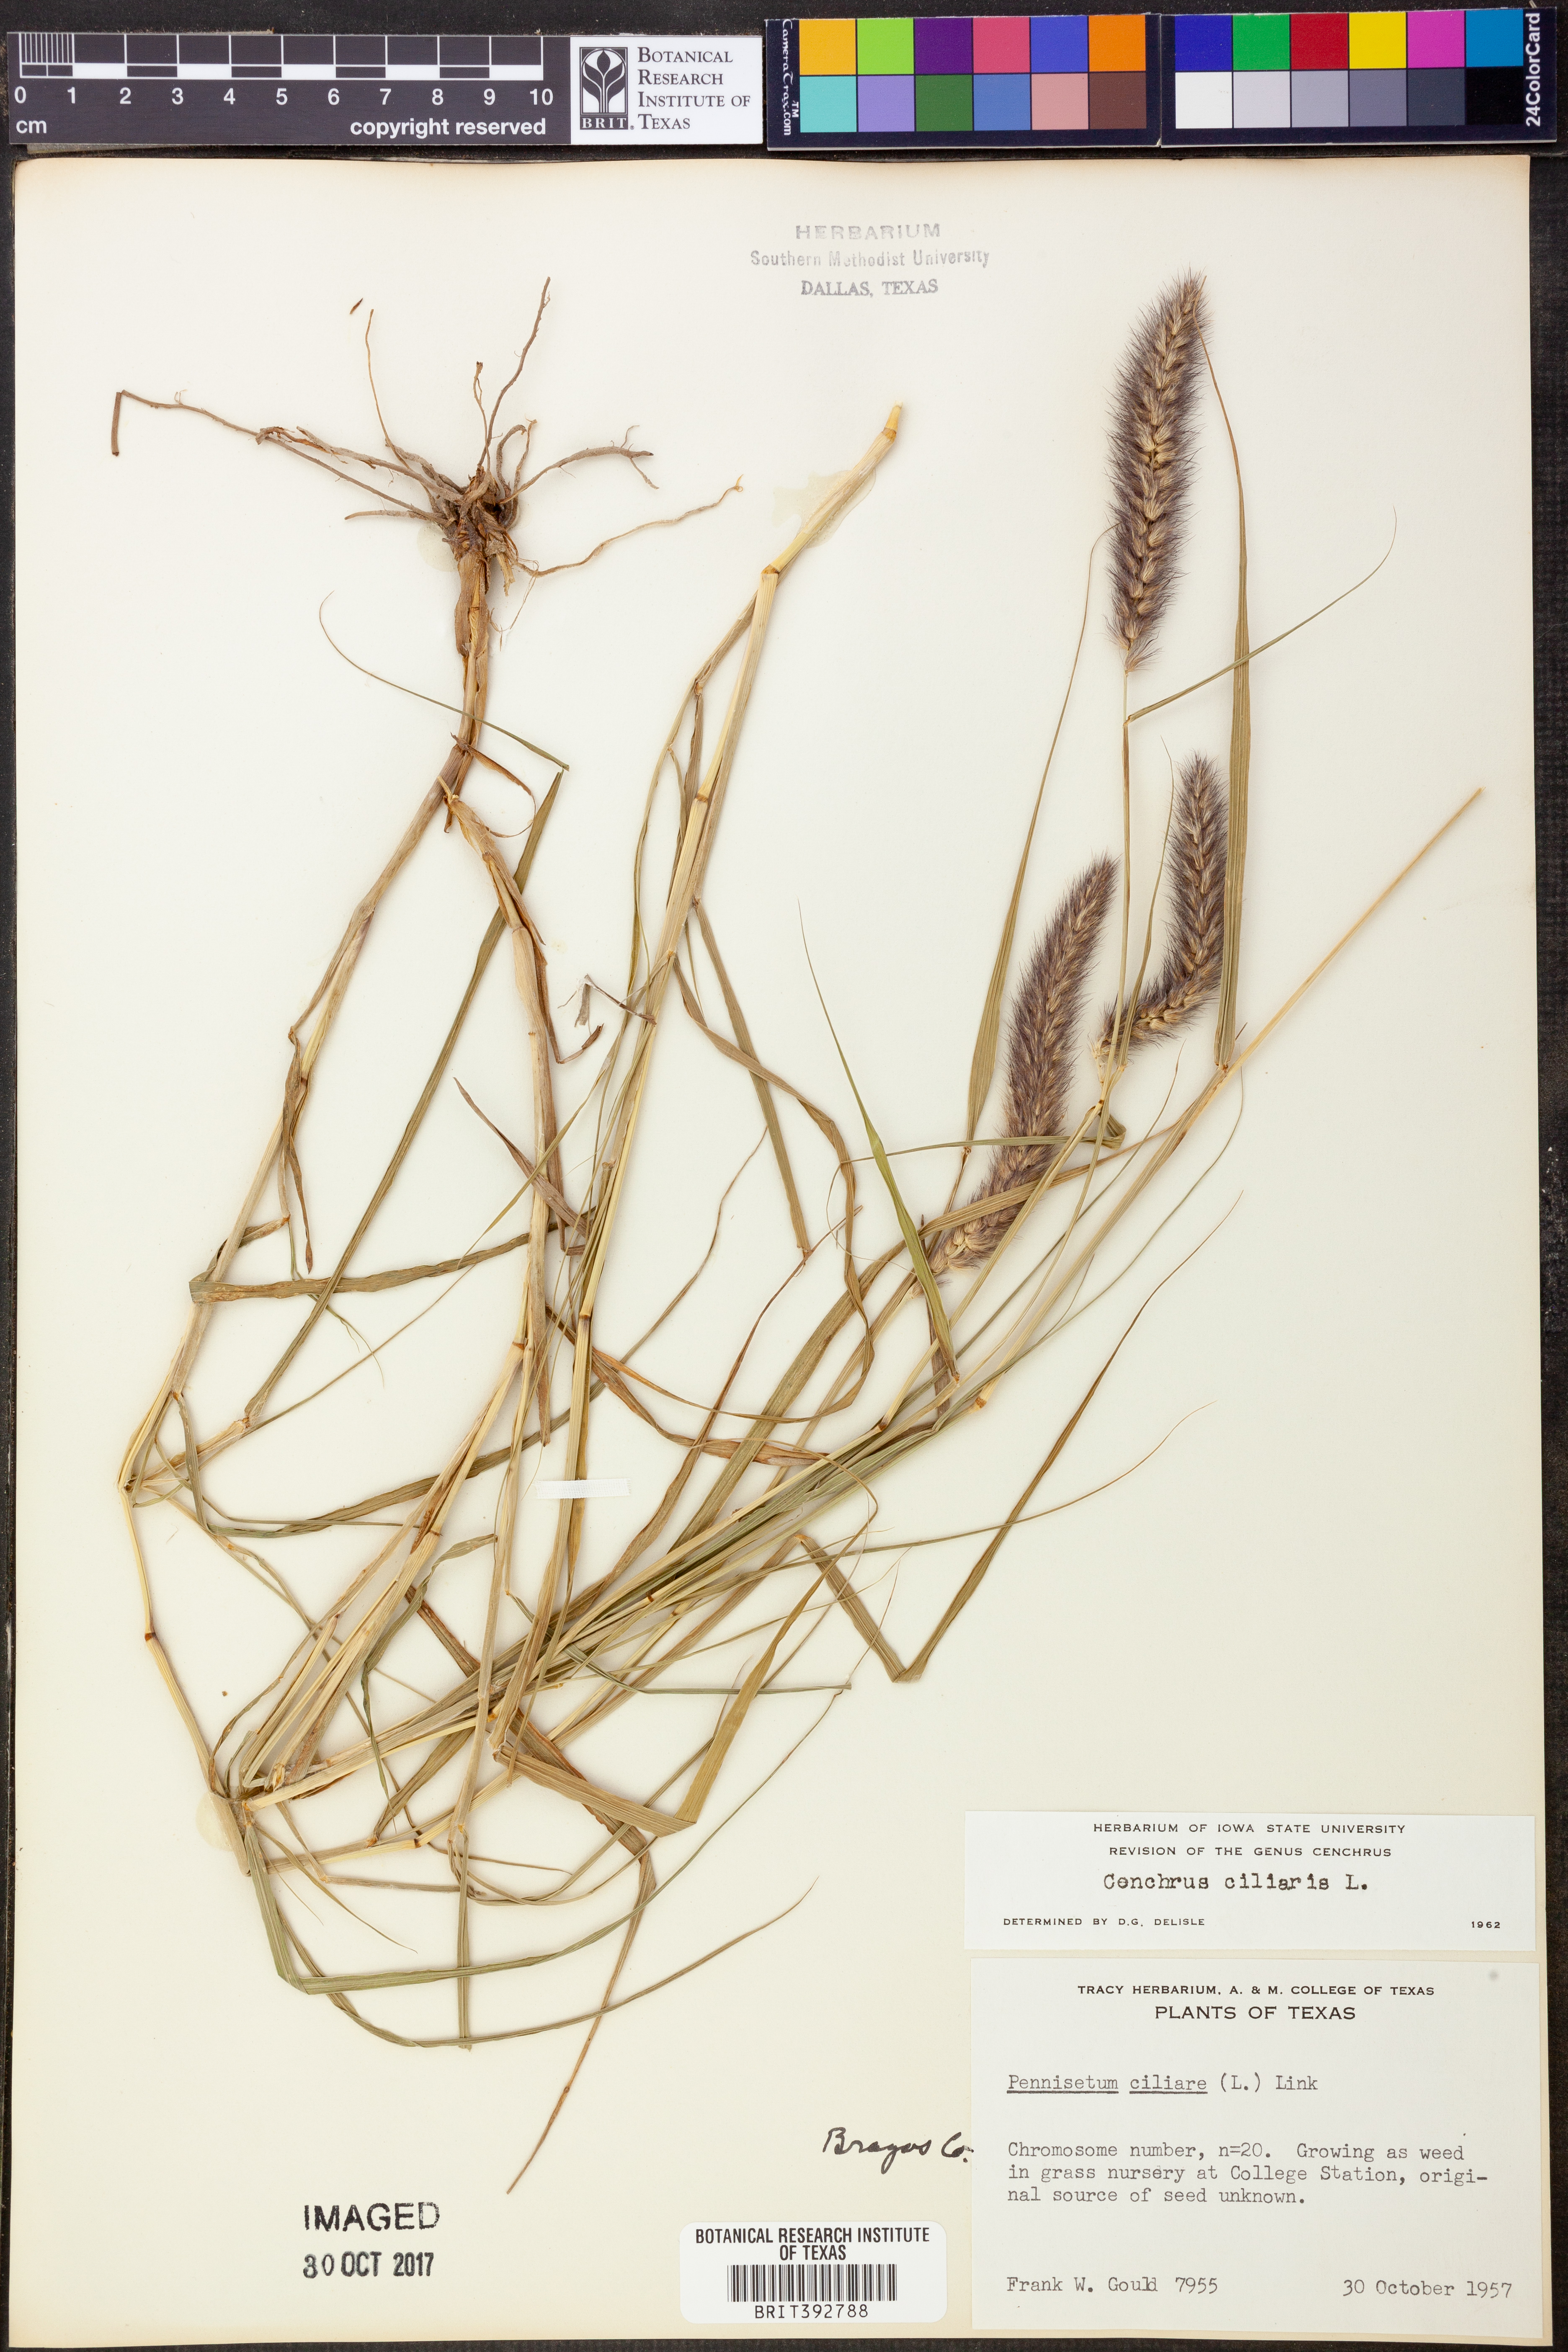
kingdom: Plantae
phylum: Tracheophyta
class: Liliopsida
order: Poales
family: Poaceae
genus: Cenchrus
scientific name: Cenchrus ciliaris
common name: Buffelgrass
